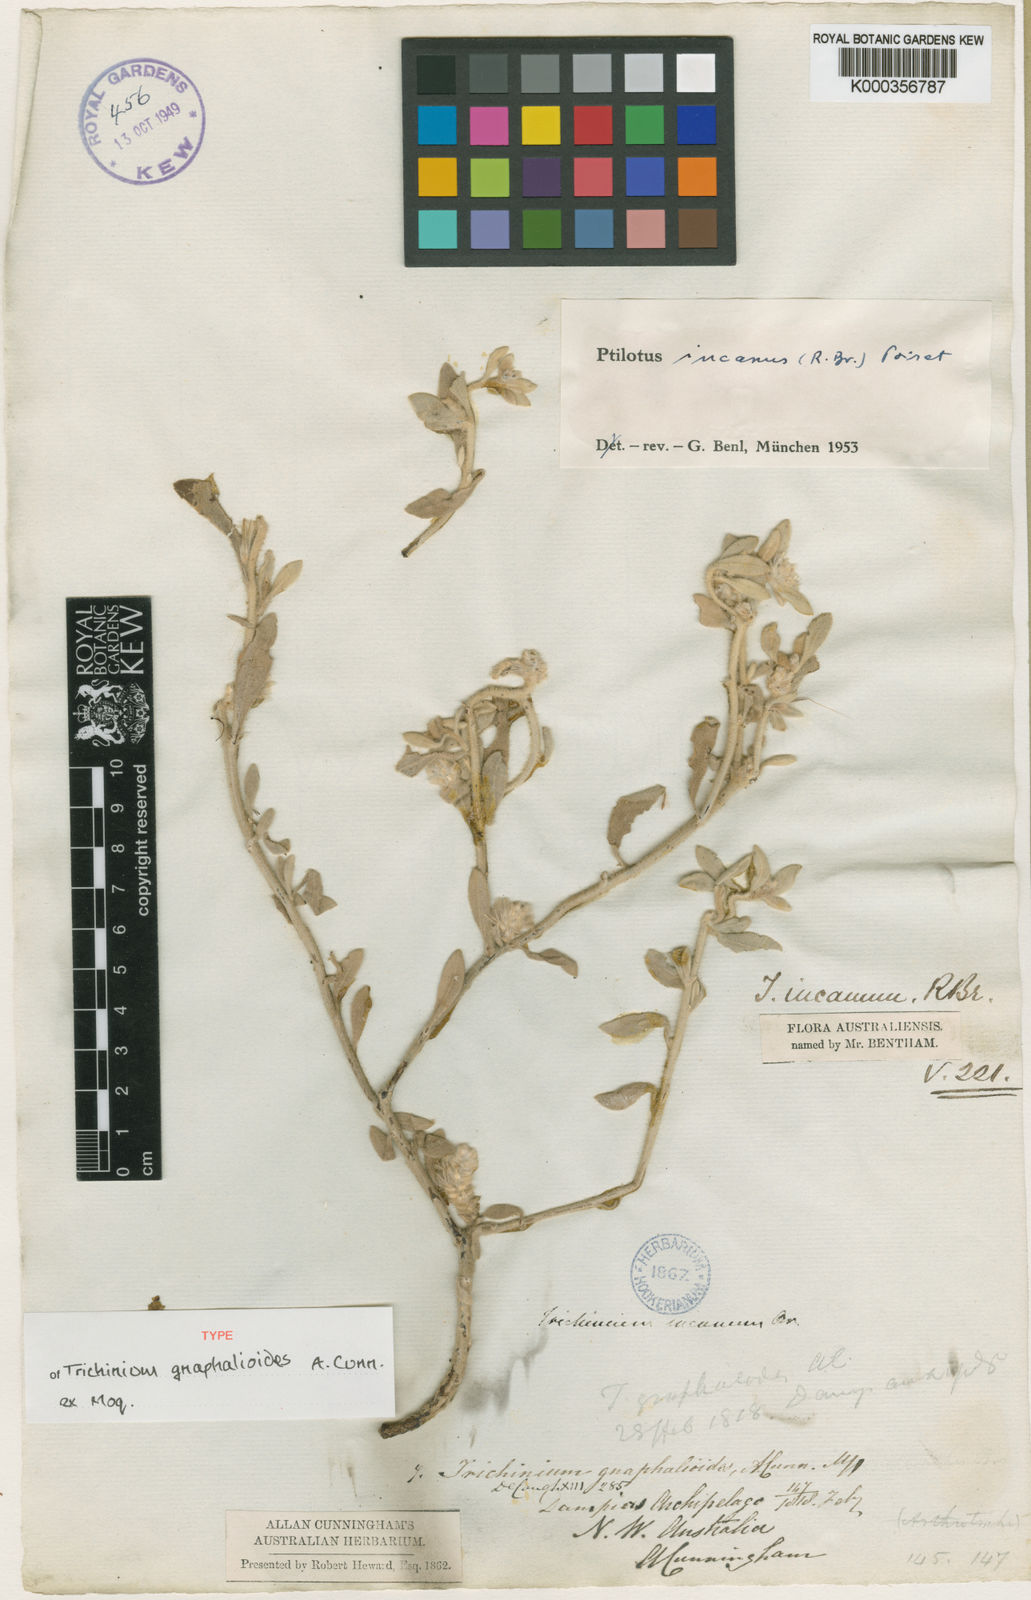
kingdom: Plantae
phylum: Tracheophyta
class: Magnoliopsida
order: Caryophyllales
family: Amaranthaceae
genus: Ptilotus
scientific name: Ptilotus incanus
